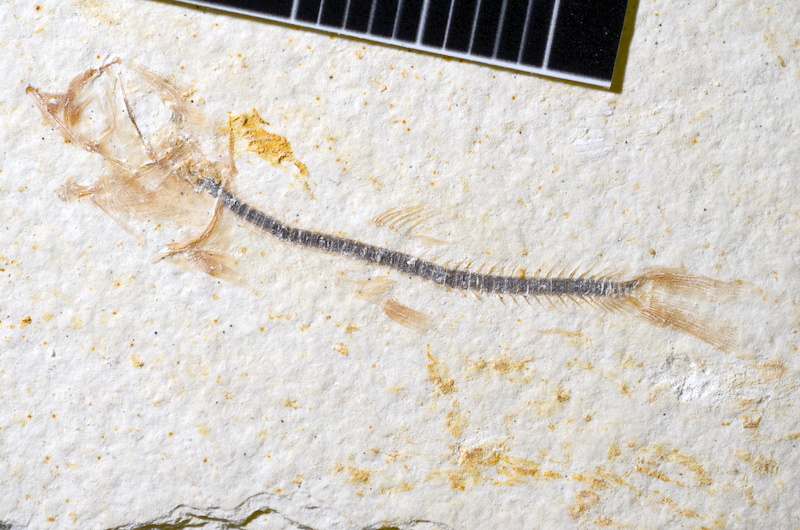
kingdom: Animalia
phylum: Chordata
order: Salmoniformes
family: Orthogonikleithridae
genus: Orthogonikleithrus
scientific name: Orthogonikleithrus hoelli
